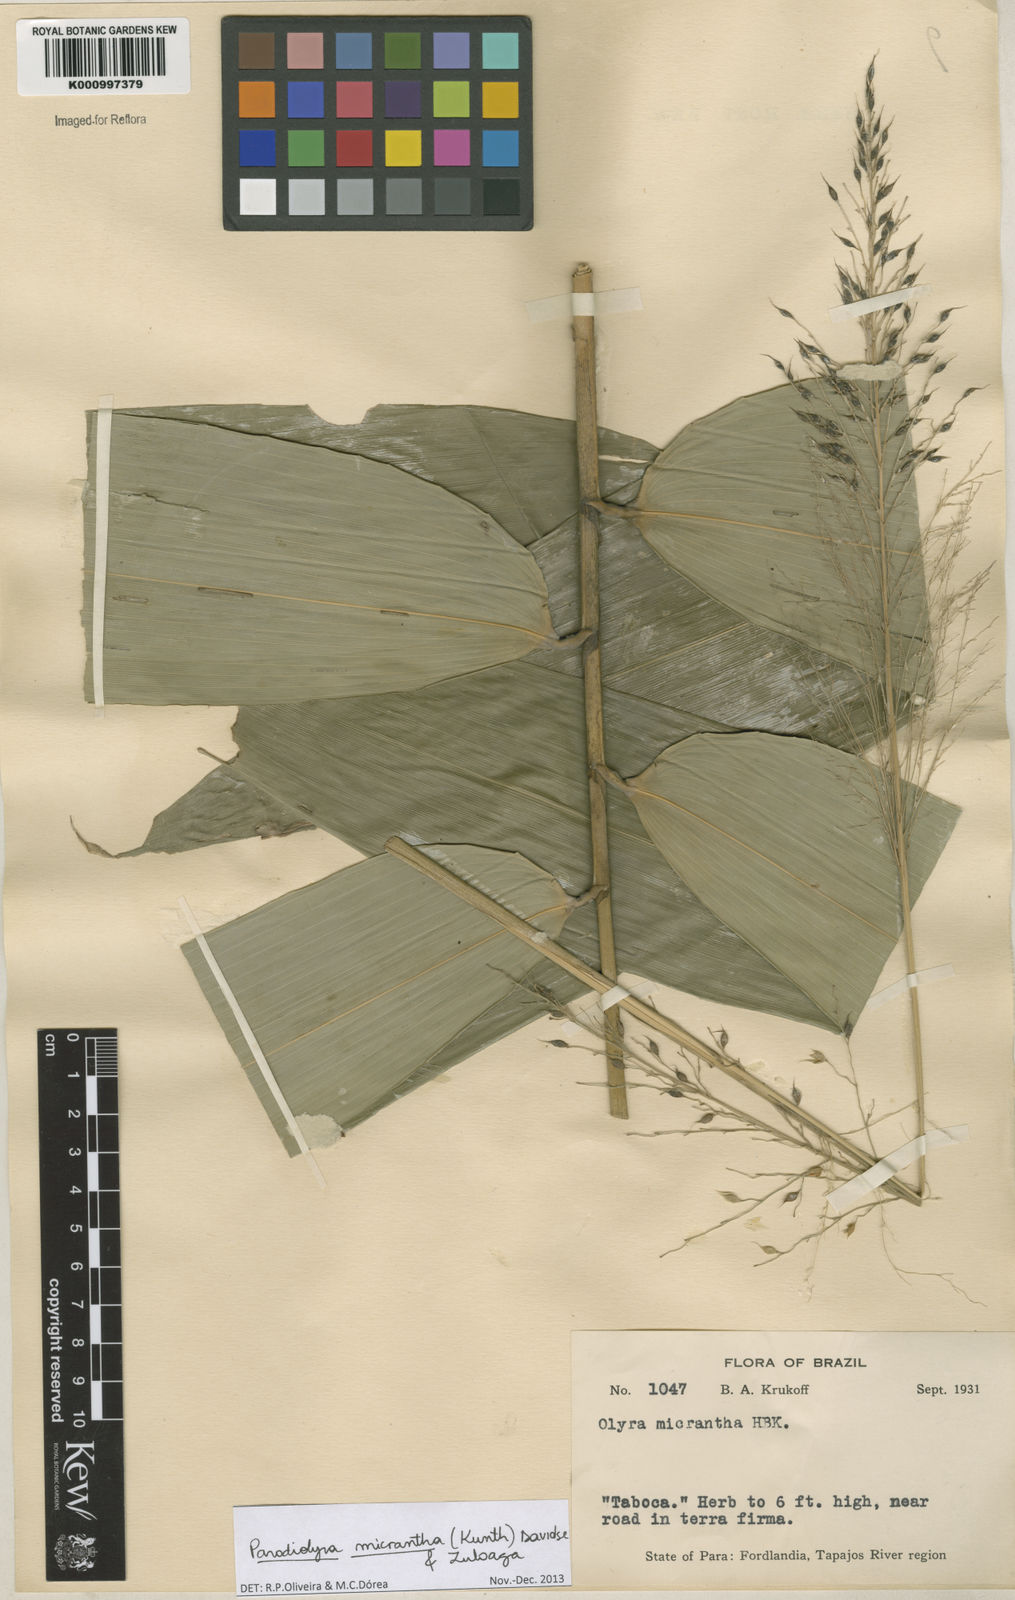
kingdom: Plantae
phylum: Tracheophyta
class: Liliopsida
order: Poales
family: Poaceae
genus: Taquara
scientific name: Taquara micrantha
